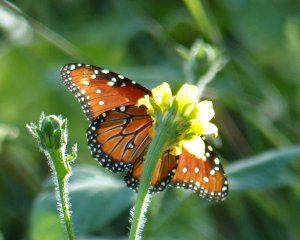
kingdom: Animalia
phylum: Arthropoda
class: Insecta
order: Lepidoptera
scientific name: Lepidoptera
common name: Butterflies
